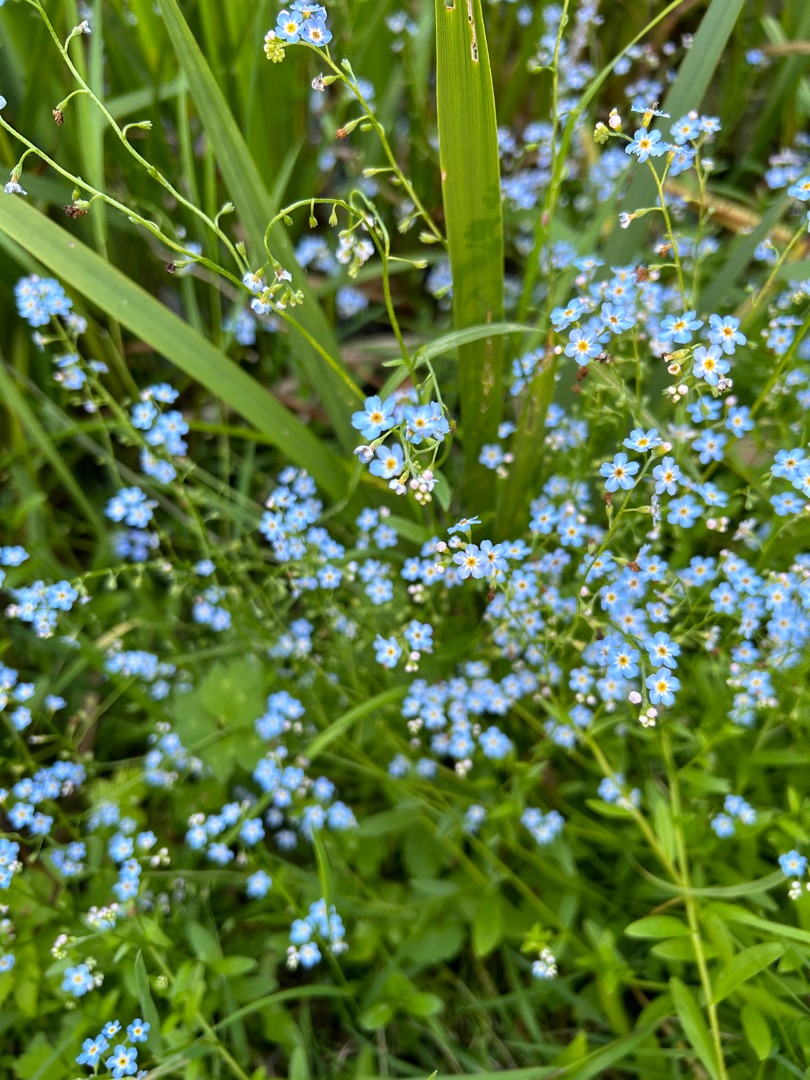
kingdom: Plantae
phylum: Tracheophyta
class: Magnoliopsida
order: Boraginales
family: Boraginaceae
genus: Myosotis
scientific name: Myosotis scorpioides
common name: Eng-forglemmigej
